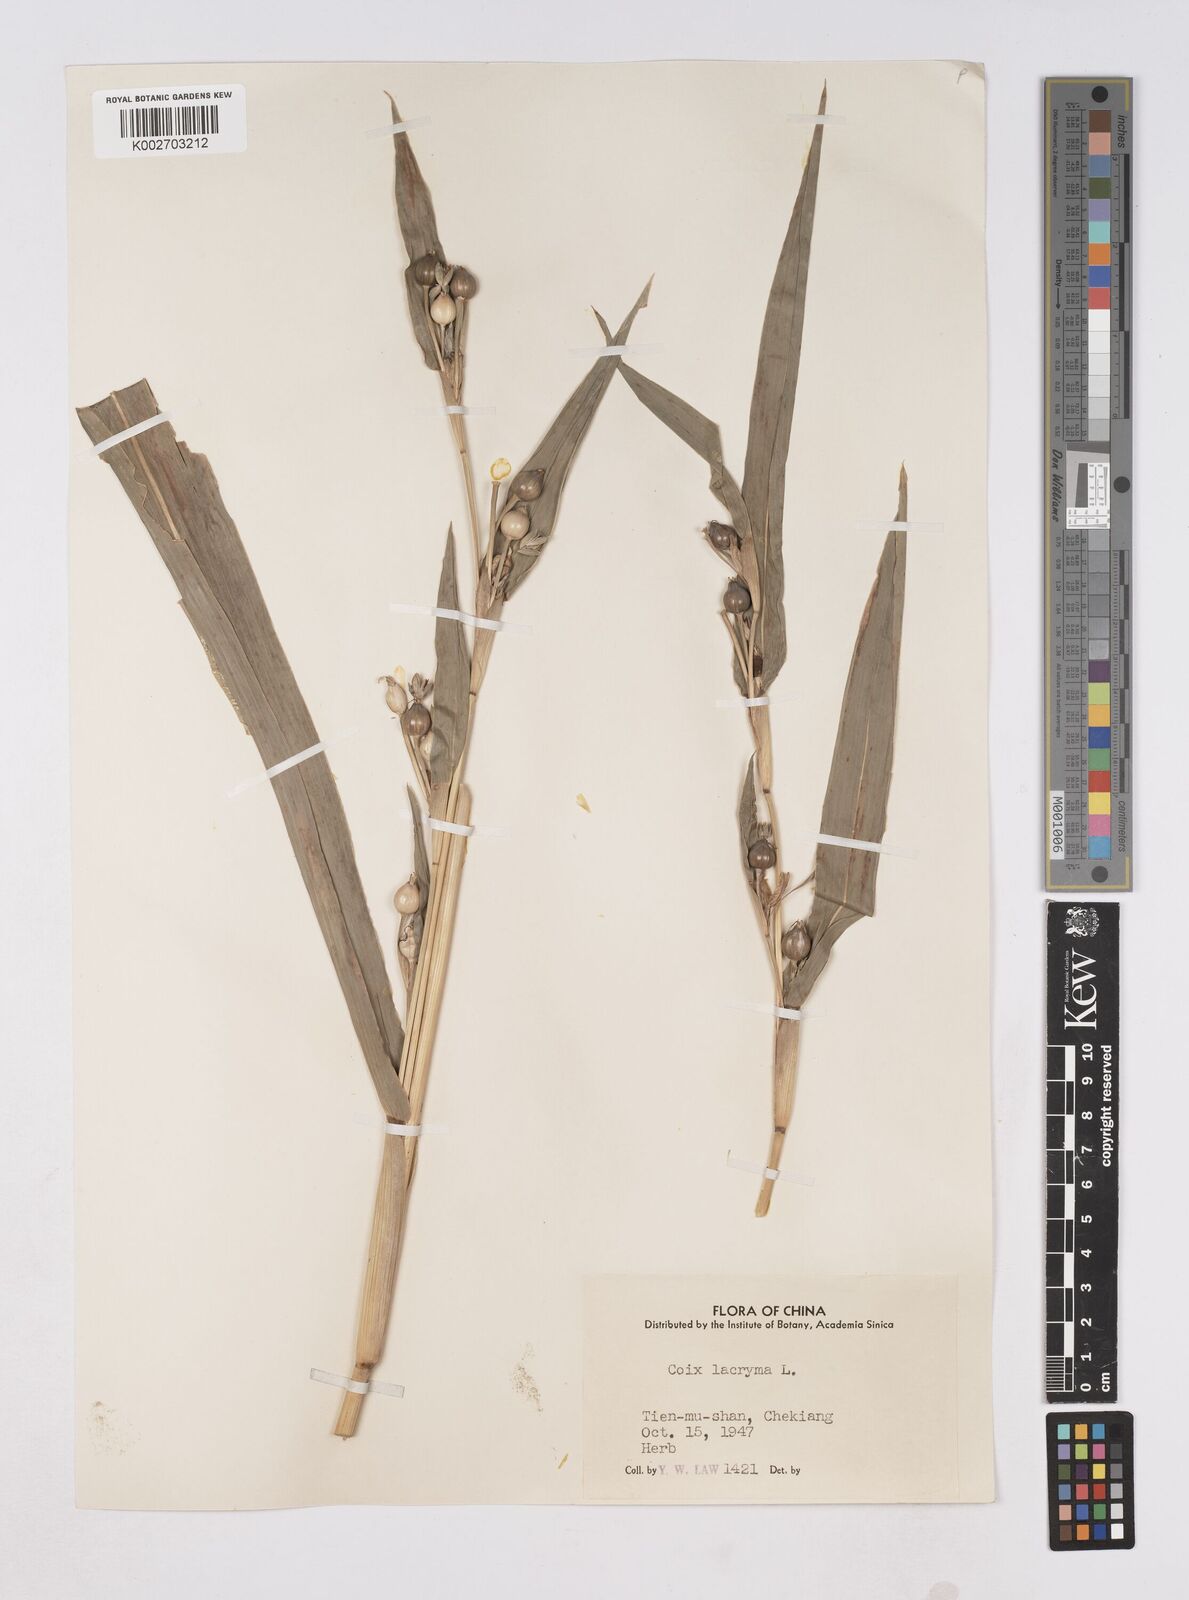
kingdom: Plantae
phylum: Tracheophyta
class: Liliopsida
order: Poales
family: Poaceae
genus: Coix
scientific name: Coix lacryma-jobi
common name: Job's tears
